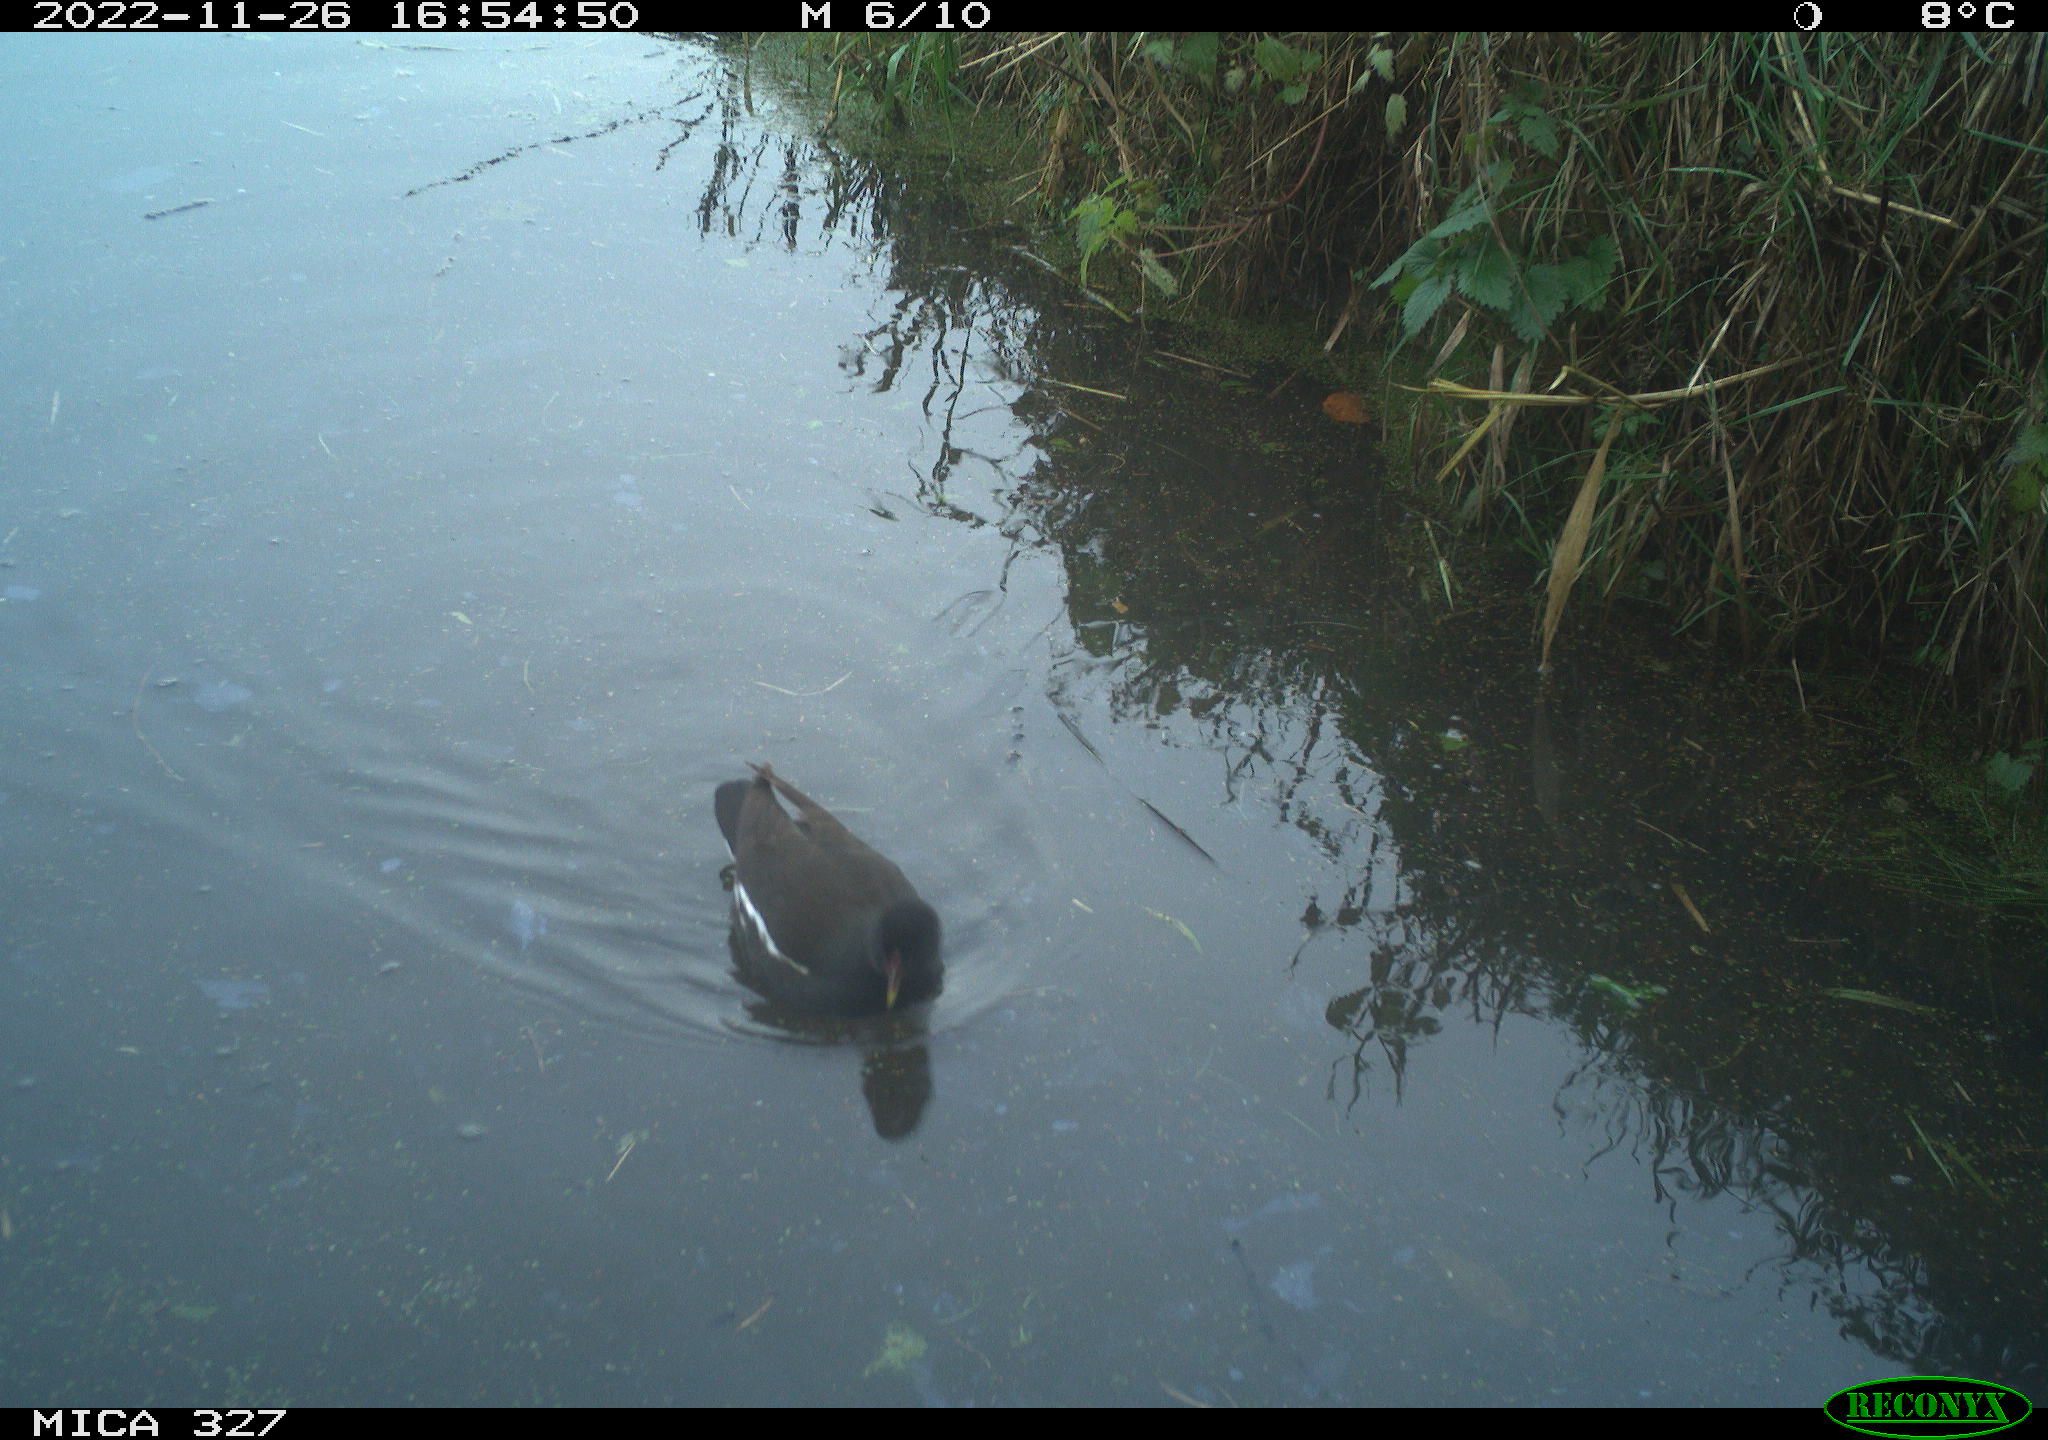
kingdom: Animalia
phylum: Chordata
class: Aves
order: Gruiformes
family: Rallidae
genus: Gallinula
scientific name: Gallinula chloropus
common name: Common moorhen
